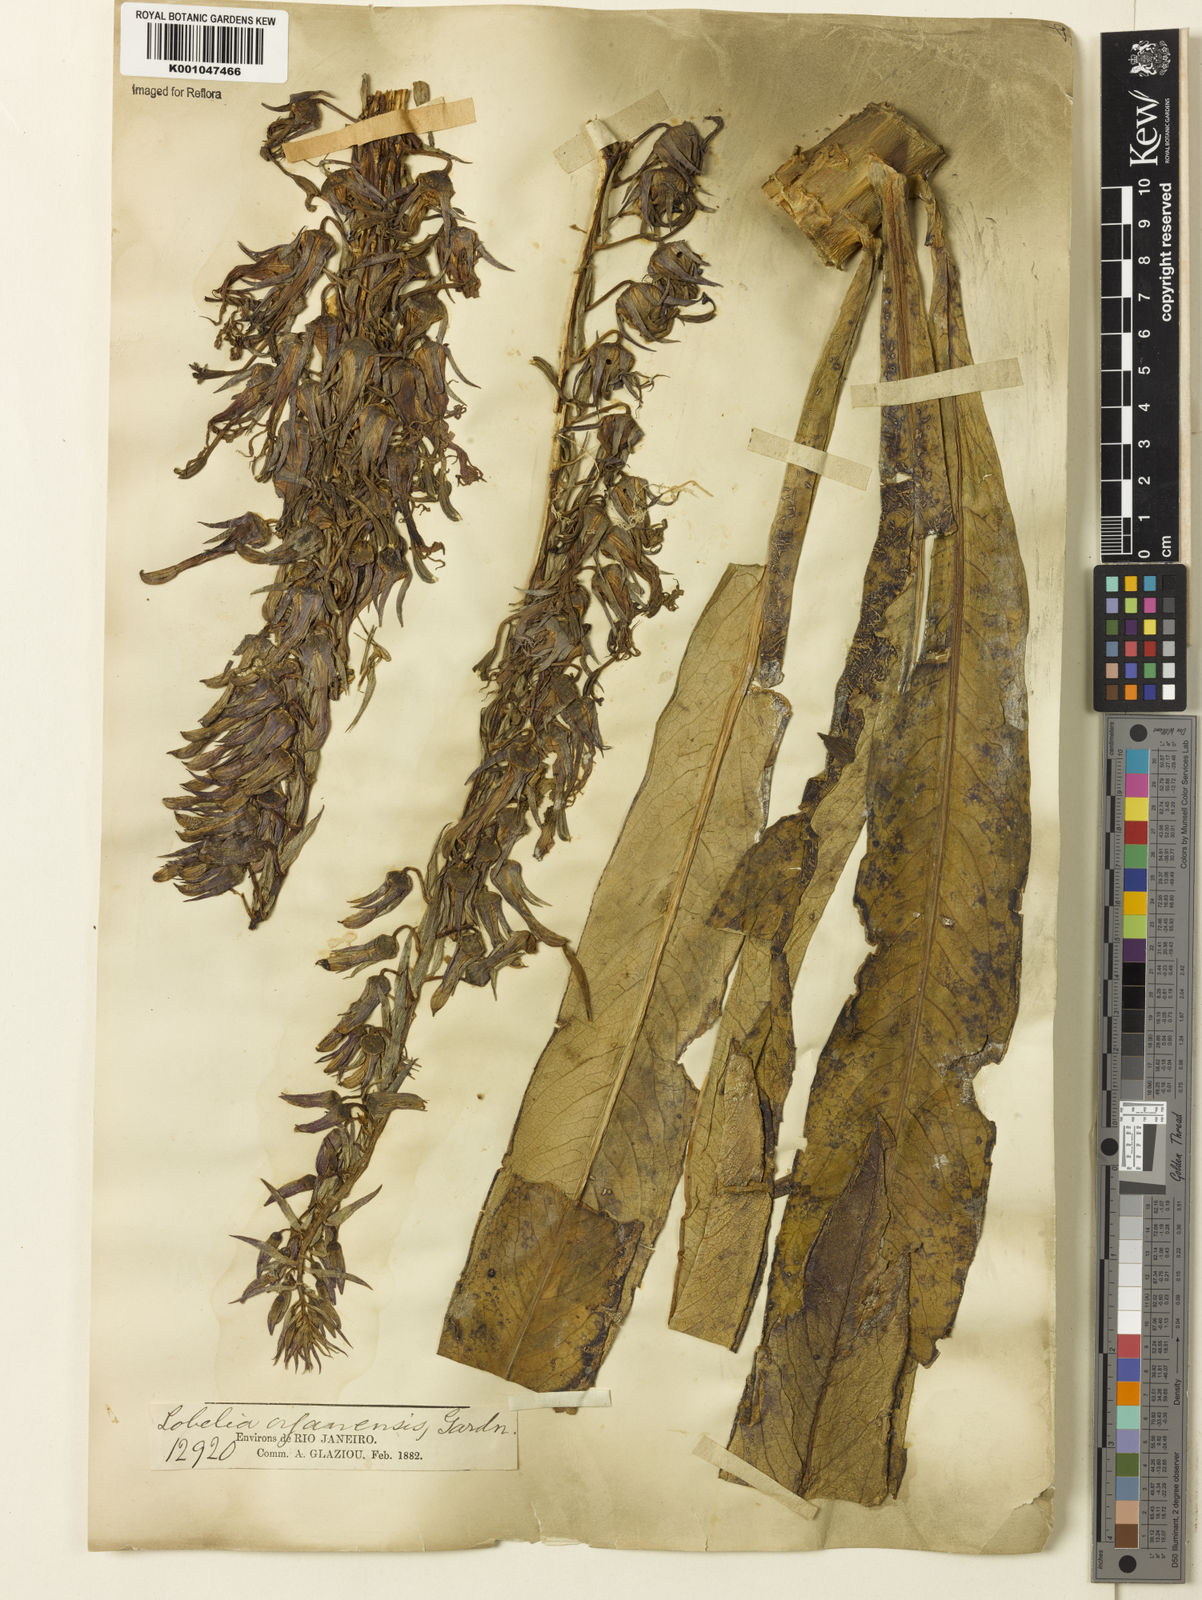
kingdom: Plantae
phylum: Tracheophyta
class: Magnoliopsida
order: Asterales
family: Campanulaceae
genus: Lobelia
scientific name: Lobelia organensis
